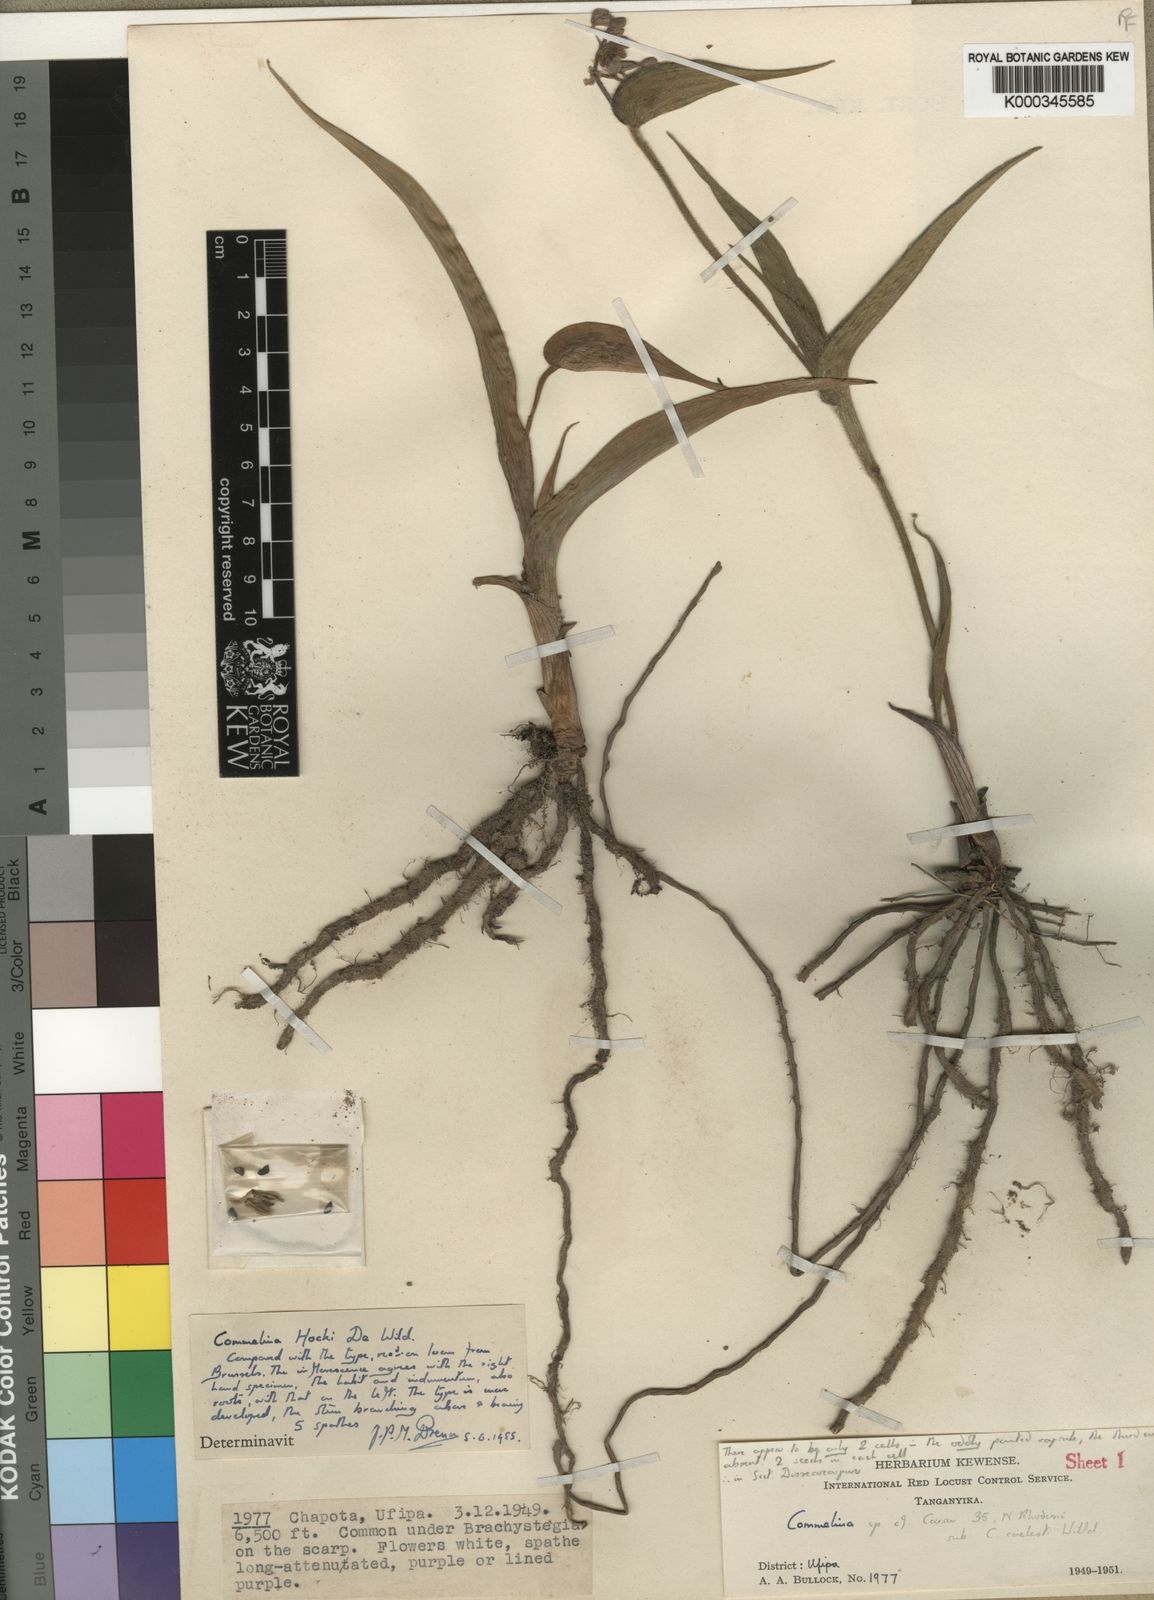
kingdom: Plantae
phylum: Tracheophyta
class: Liliopsida
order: Commelinales
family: Commelinaceae
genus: Commelina
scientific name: Commelina hockii
